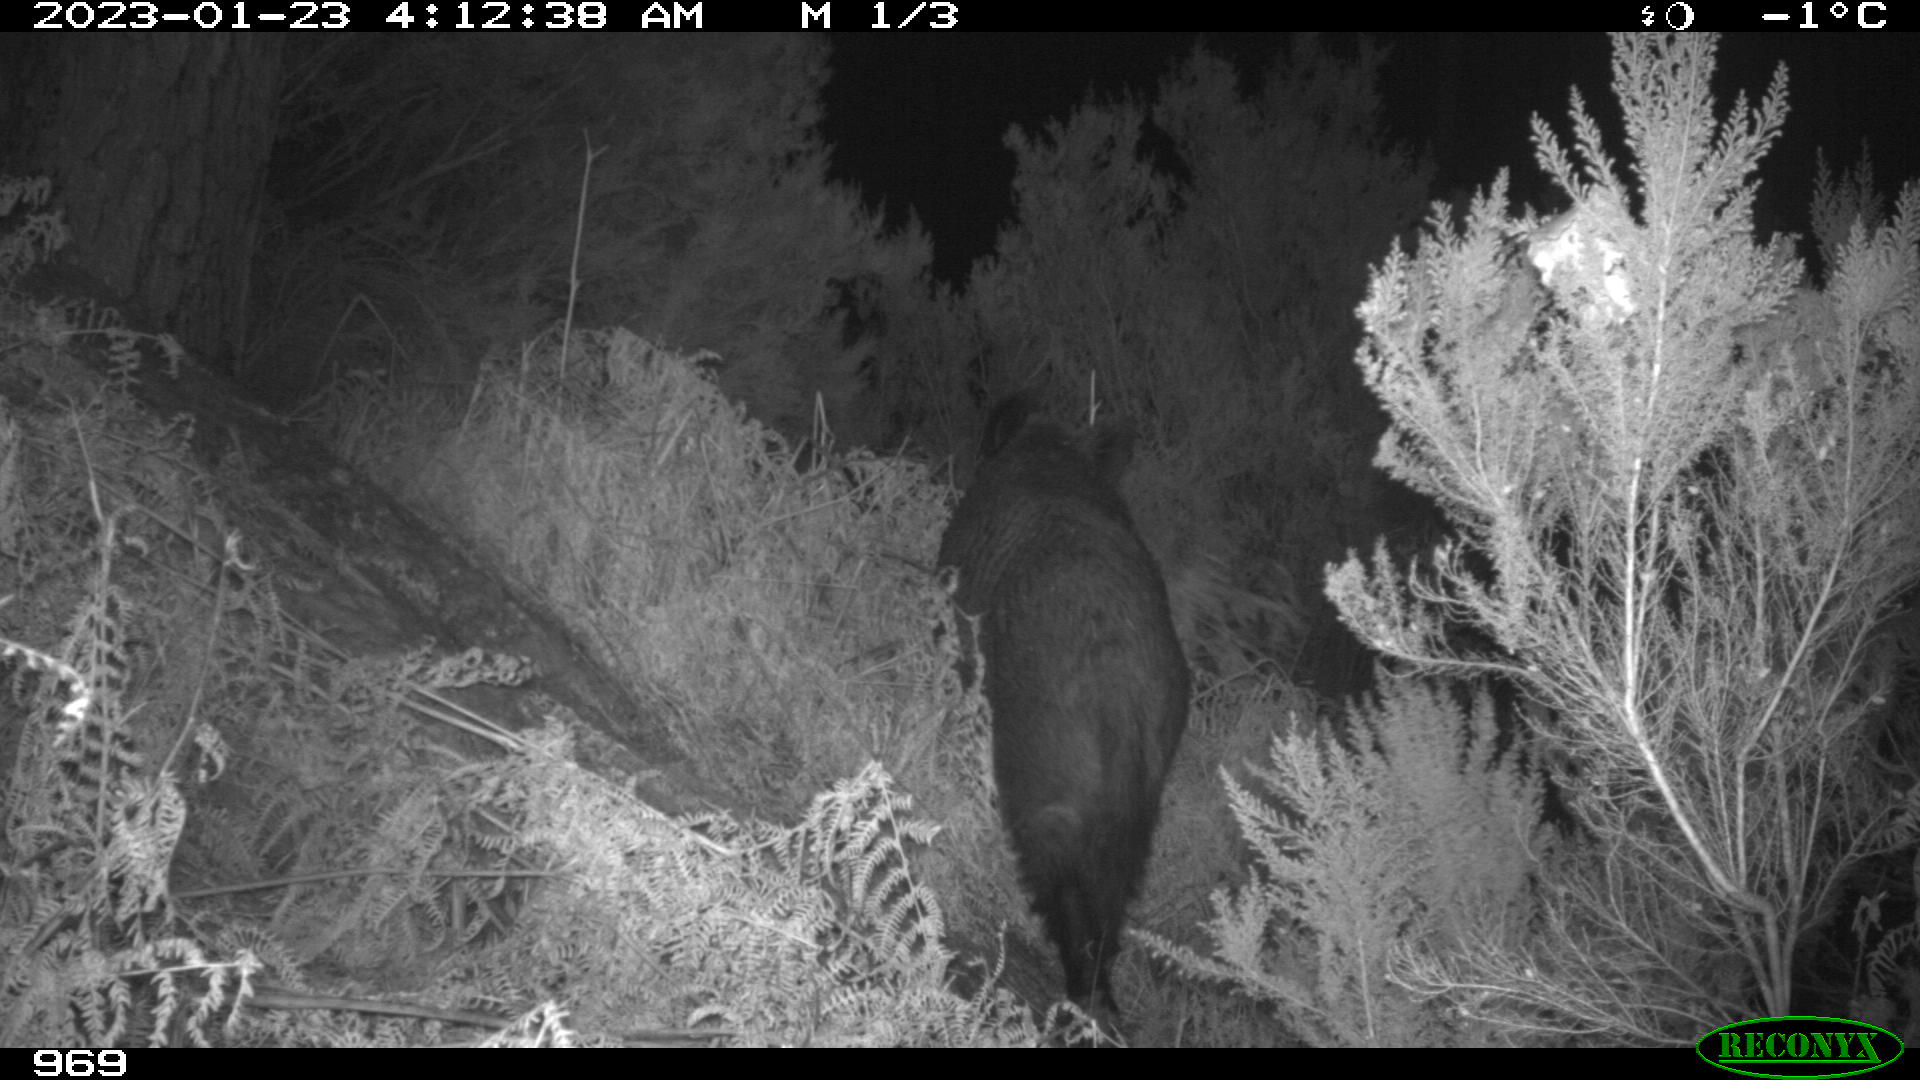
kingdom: Animalia
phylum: Chordata
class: Mammalia
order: Artiodactyla
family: Suidae
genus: Sus
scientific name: Sus scrofa
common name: Wild boar
